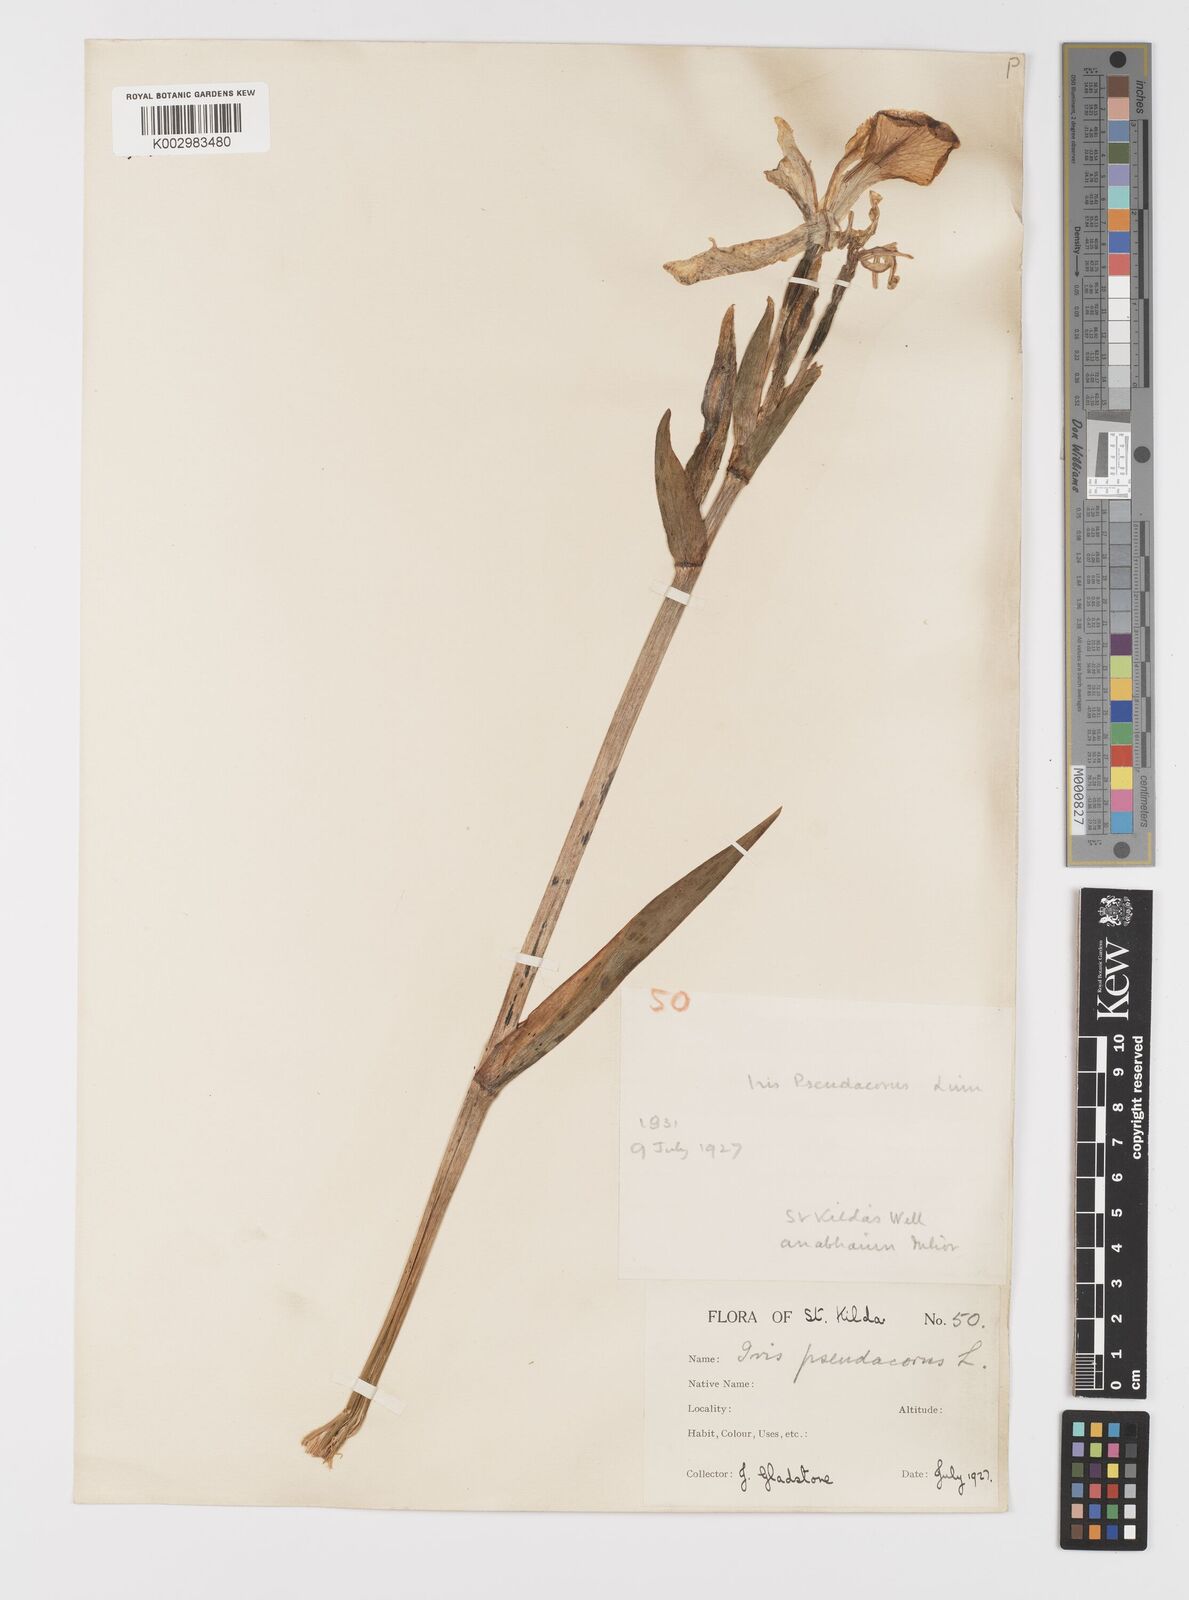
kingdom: Plantae
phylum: Tracheophyta
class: Liliopsida
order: Asparagales
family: Iridaceae
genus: Iris
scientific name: Iris pseudacorus
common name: Yellow flag
